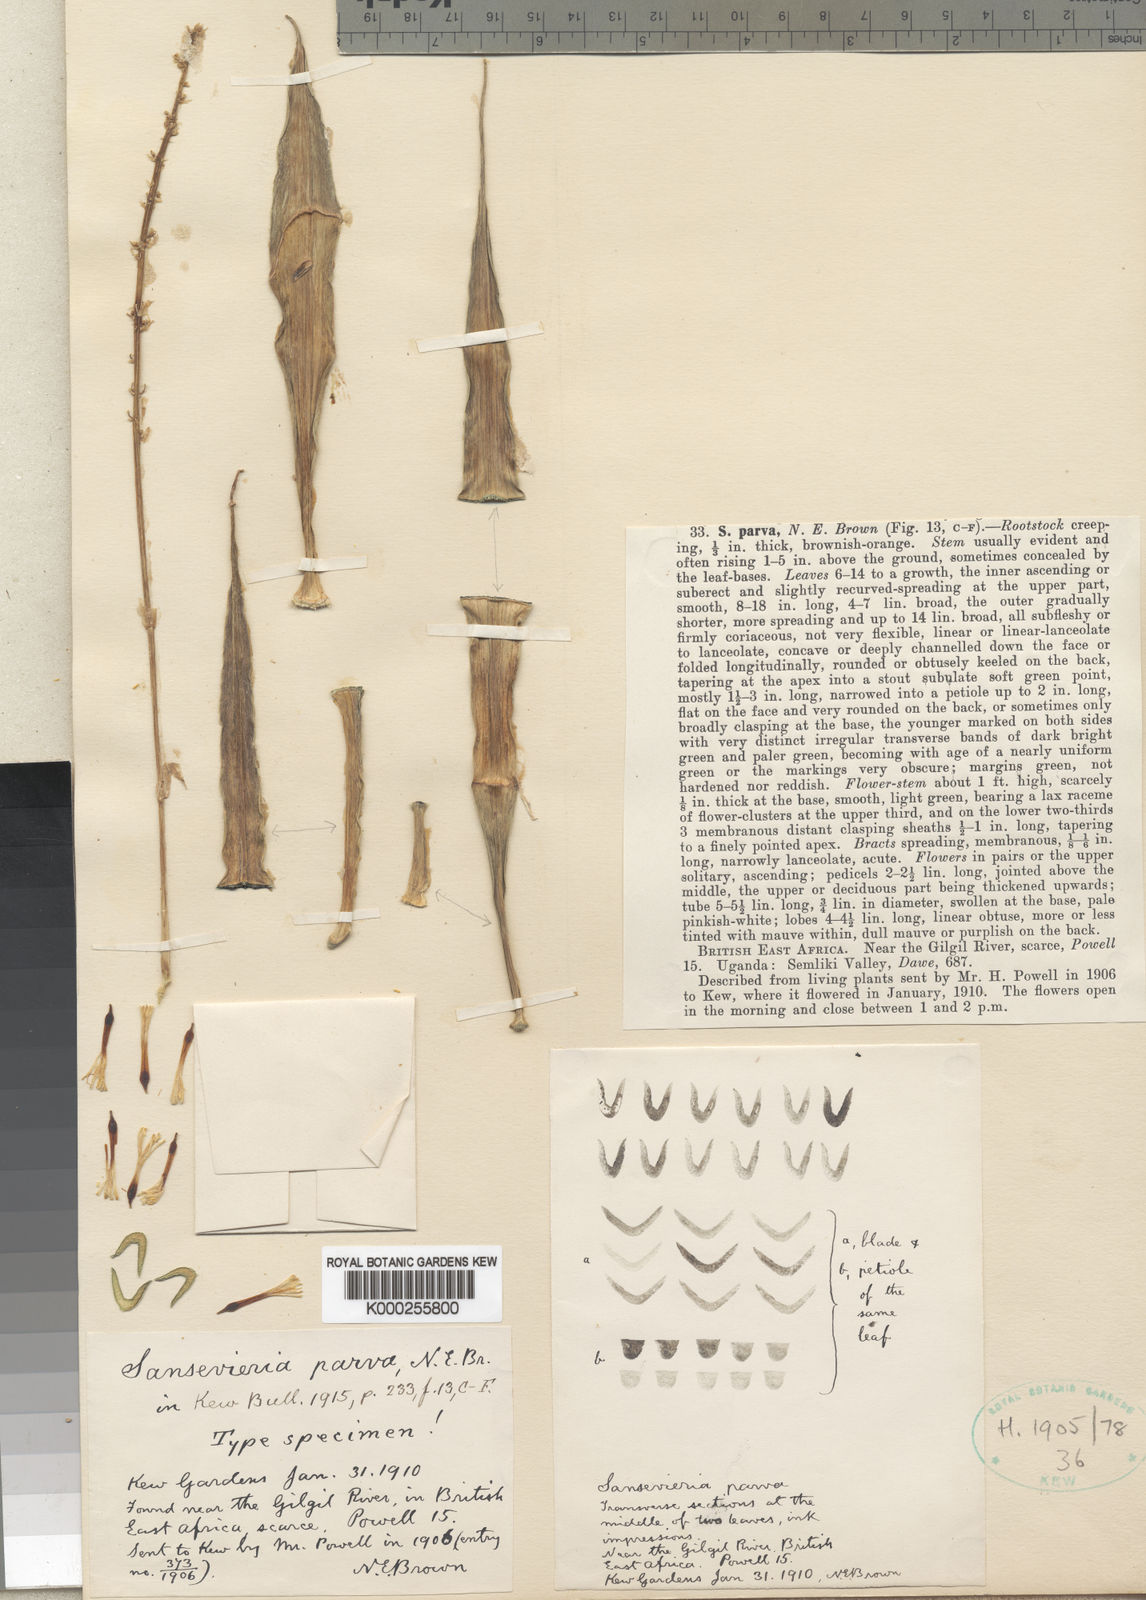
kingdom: Plantae
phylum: Tracheophyta
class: Liliopsida
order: Asparagales
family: Asparagaceae
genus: Dracaena
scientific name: Dracaena parva
